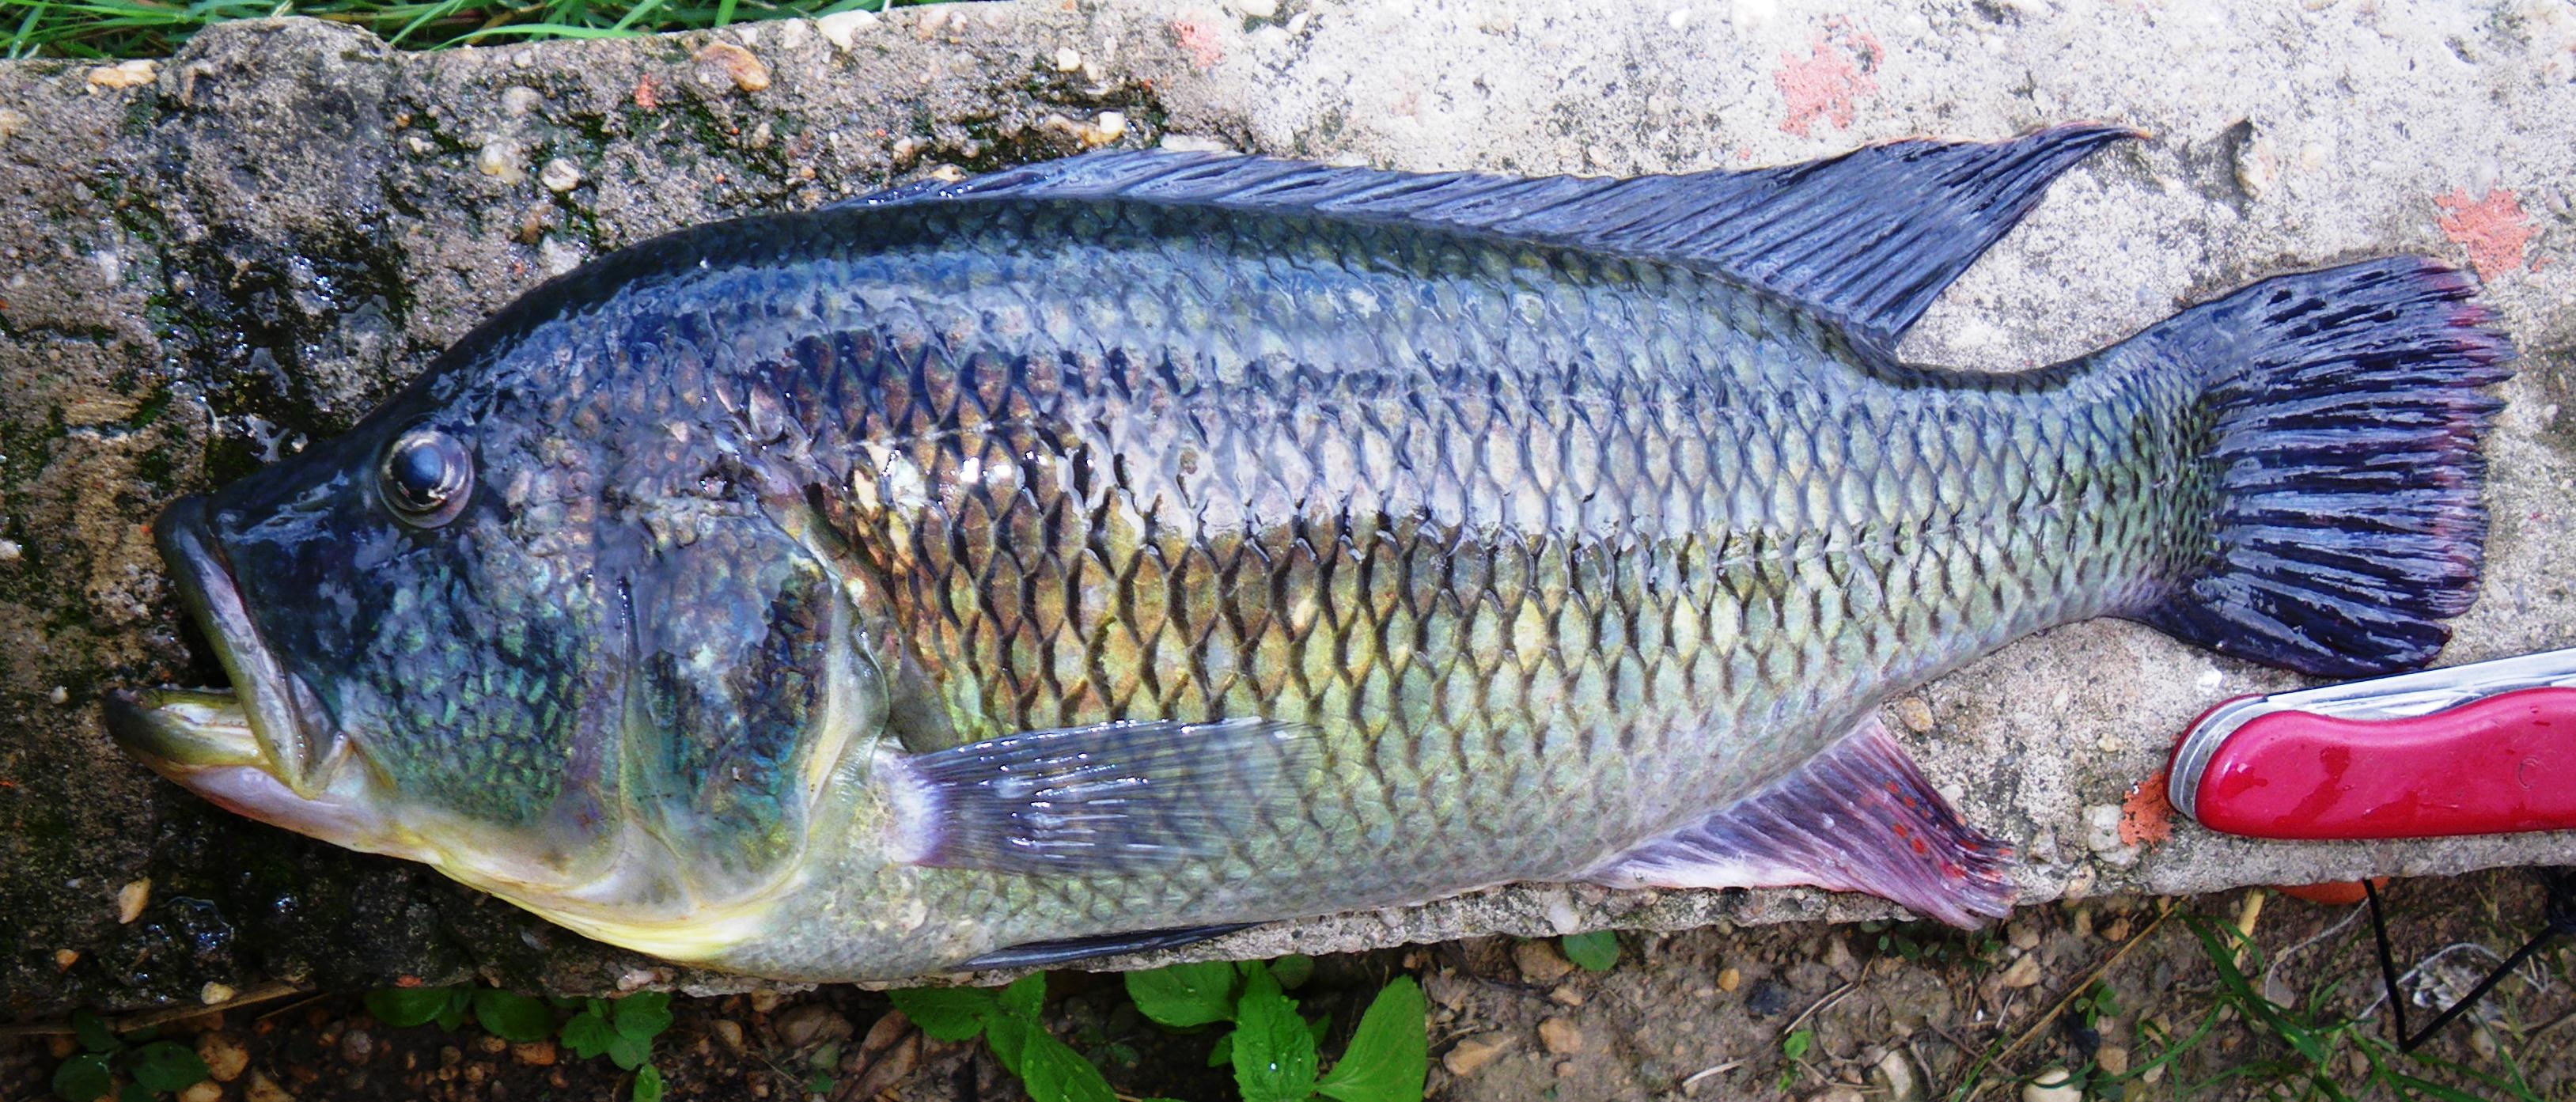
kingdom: Animalia
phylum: Chordata
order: Perciformes
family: Cichlidae
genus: Serranochromis
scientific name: Serranochromis
